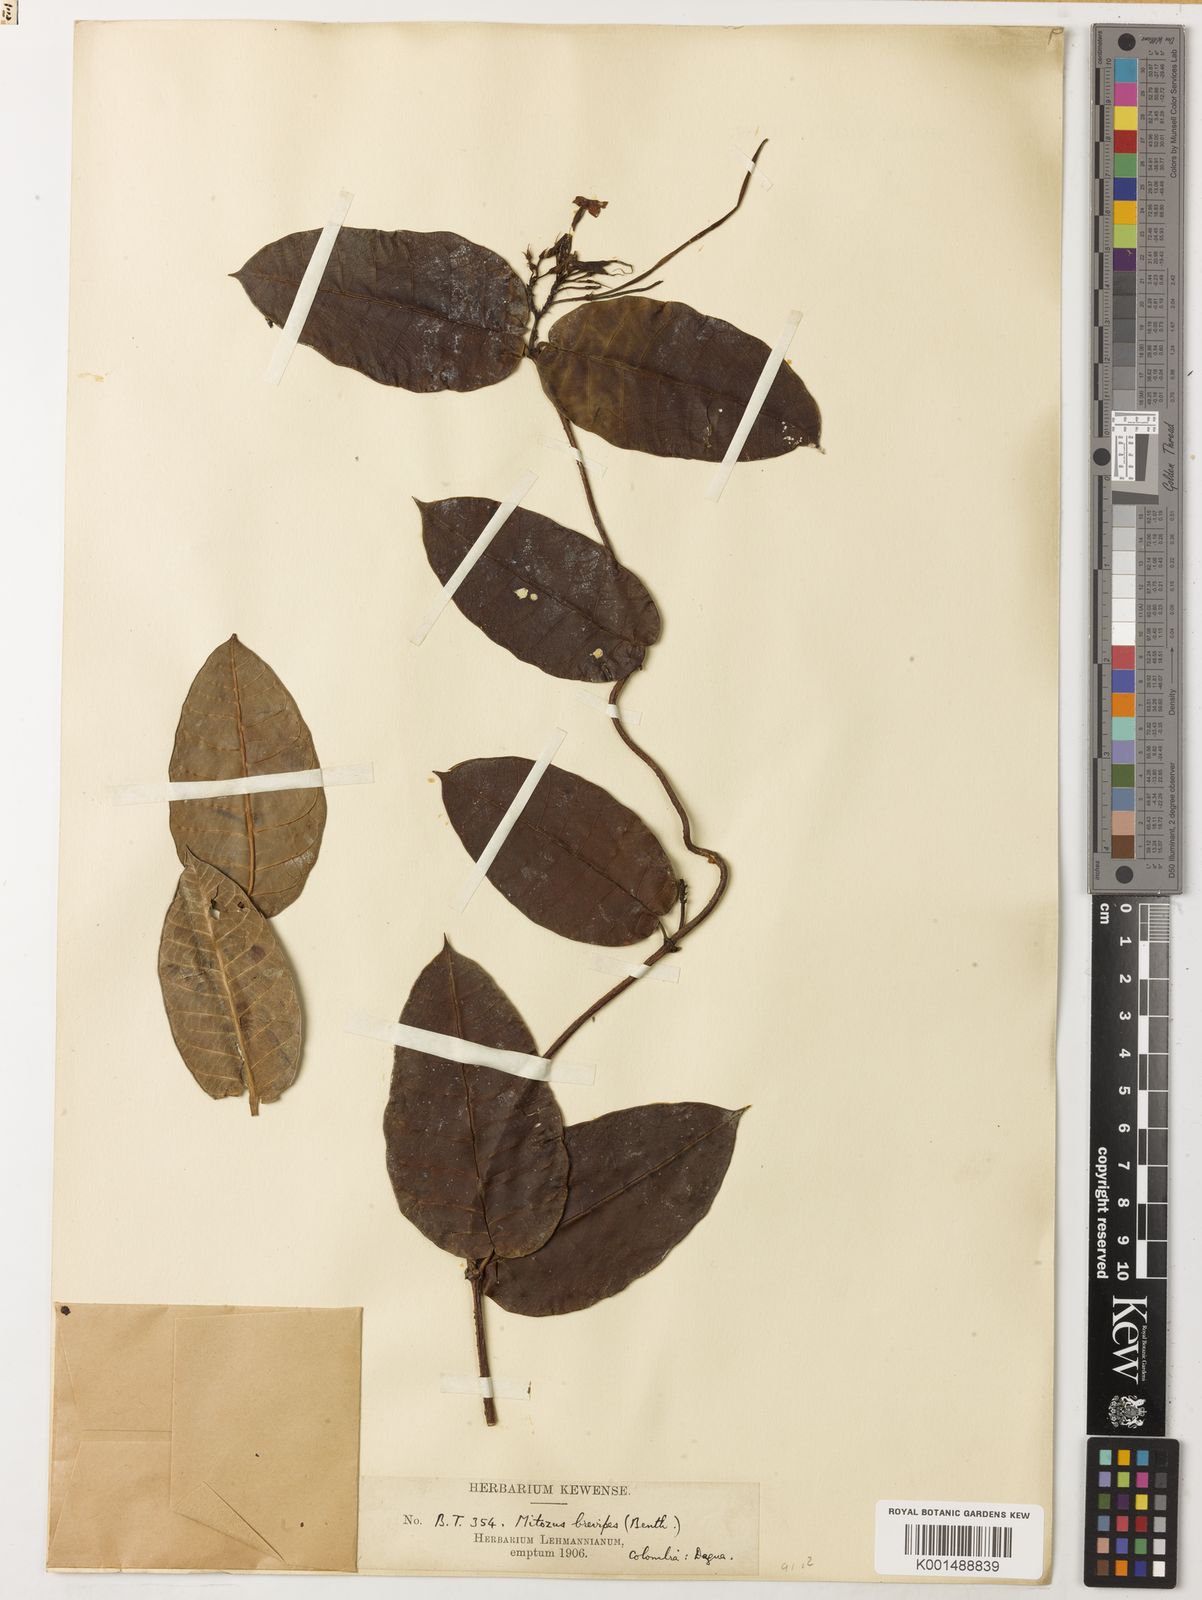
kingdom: Plantae
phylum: Tracheophyta
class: Magnoliopsida
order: Gentianales
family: Apocynaceae
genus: Mesechites
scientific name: Mesechites citrifolius
